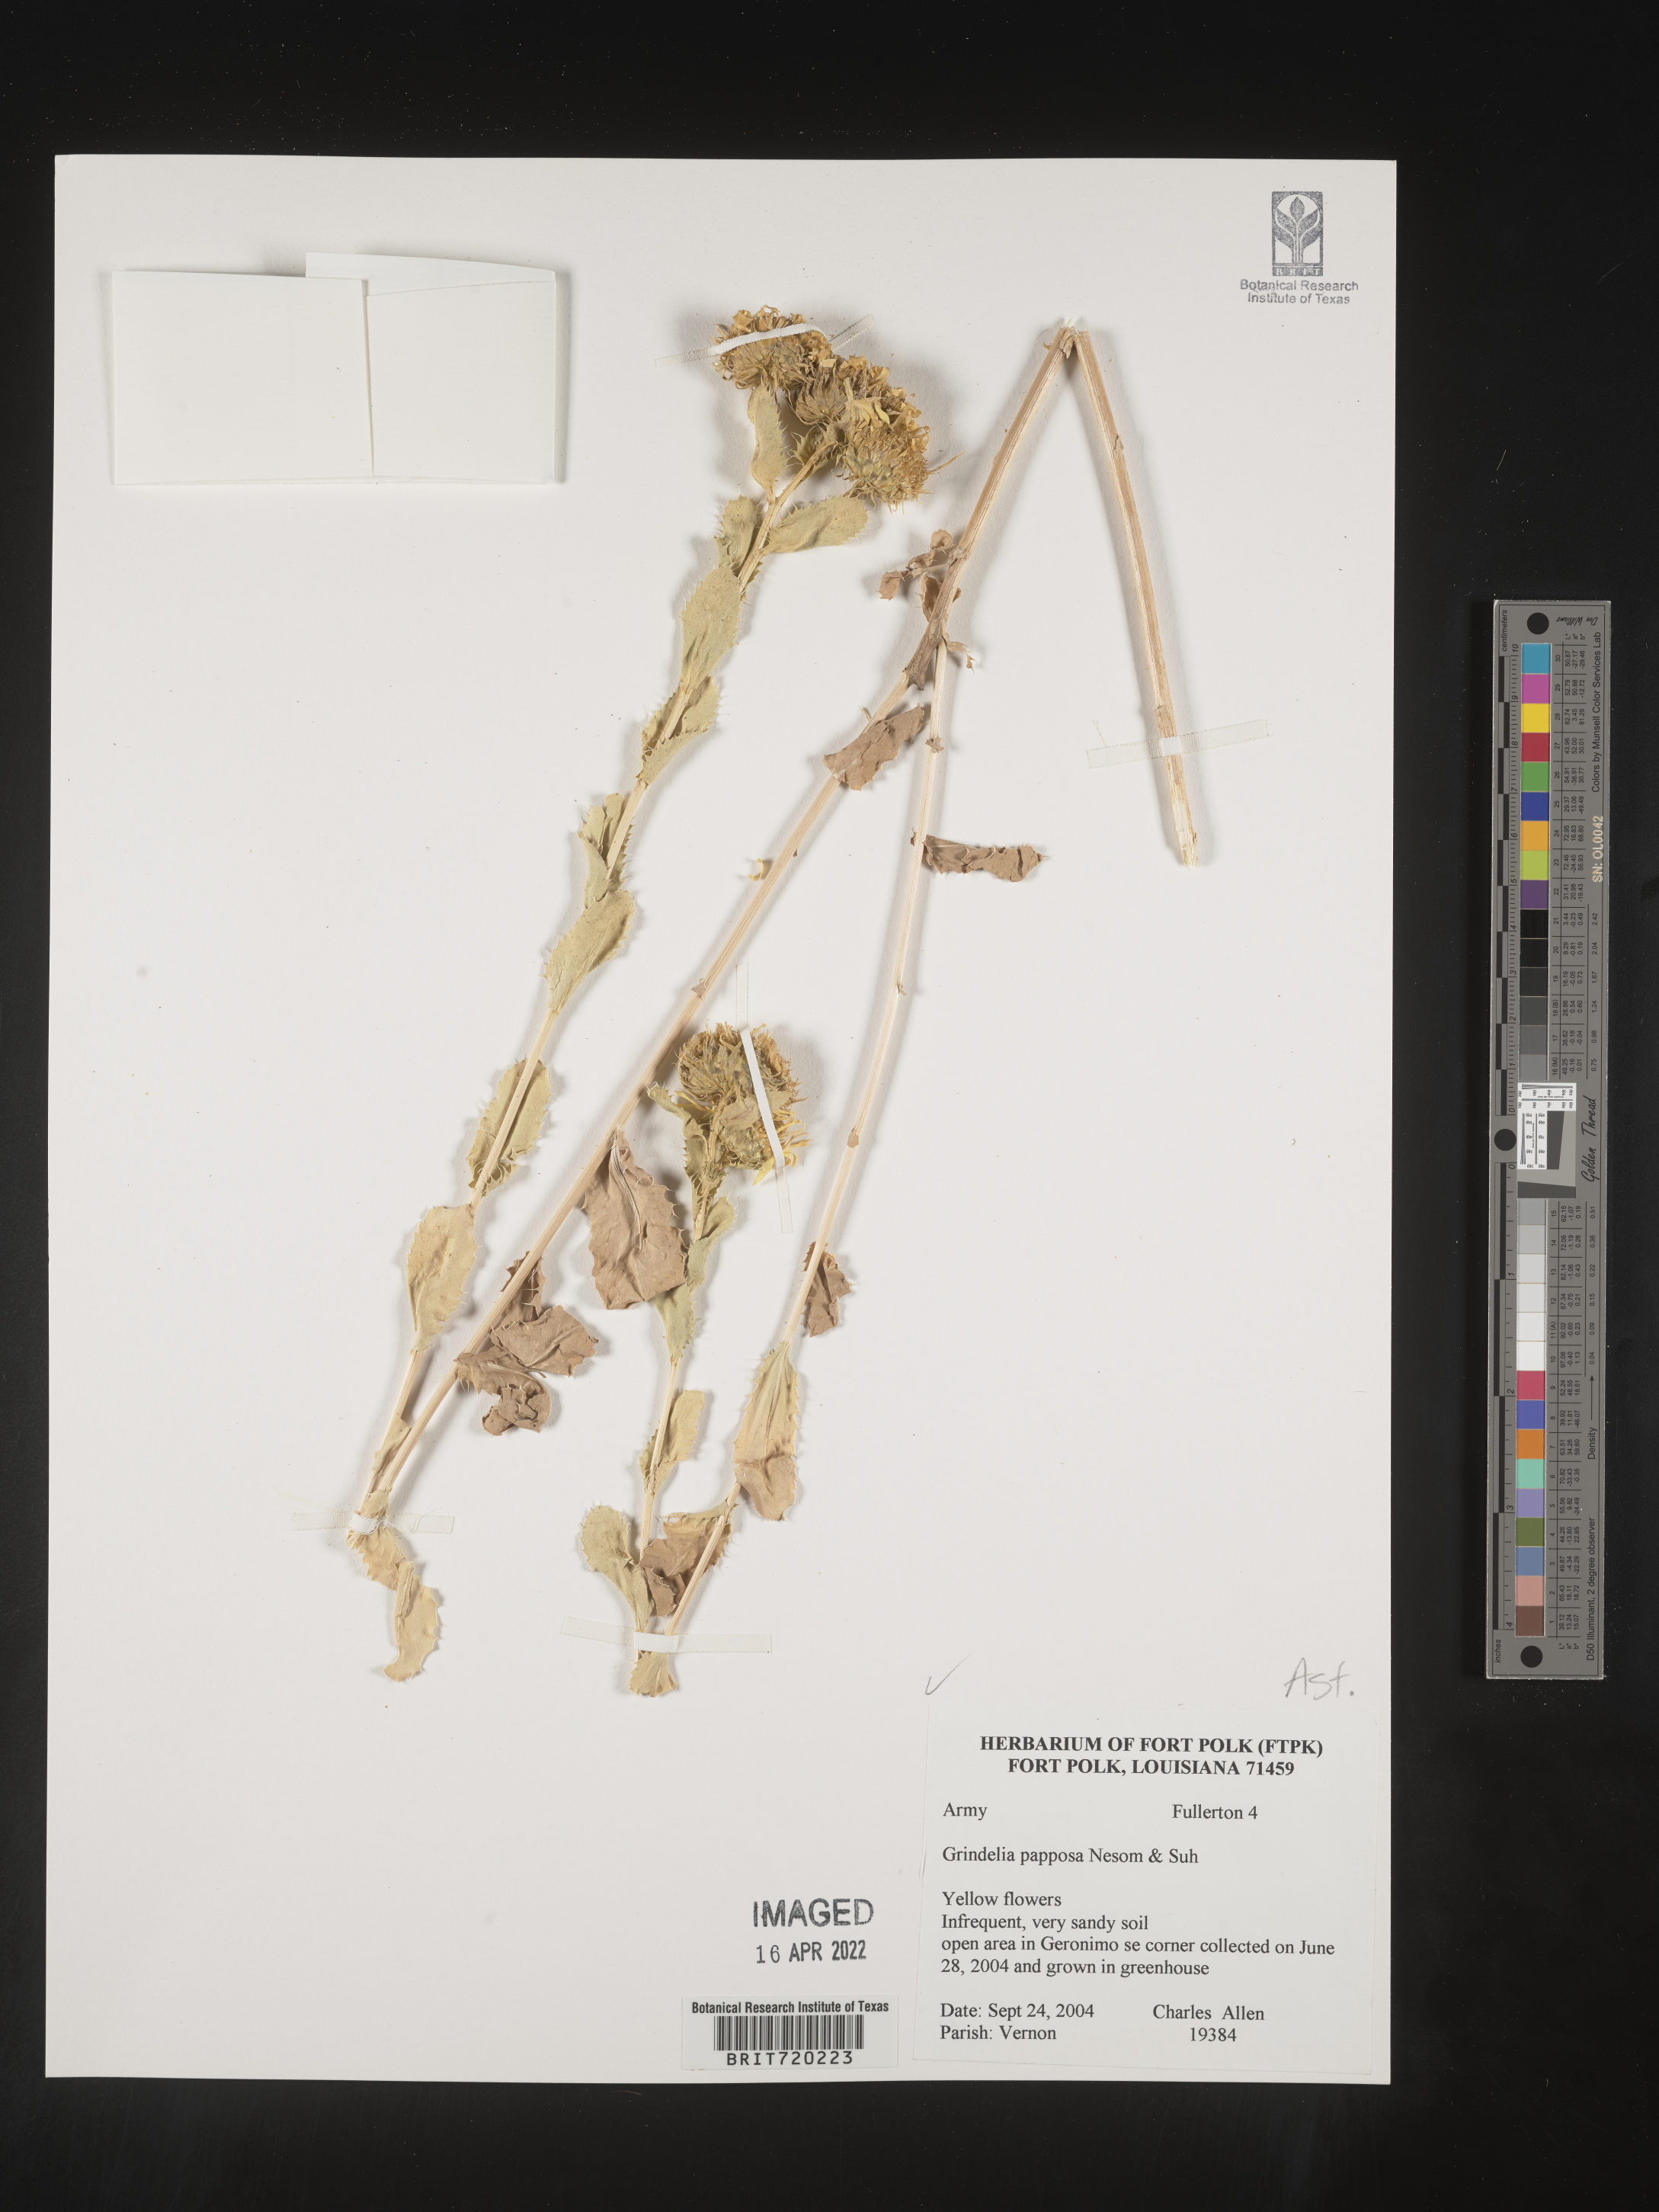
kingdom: Plantae
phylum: Tracheophyta
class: Magnoliopsida
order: Asterales
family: Asteraceae
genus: Grindelia
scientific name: Grindelia ciliata
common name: Goldenweed
